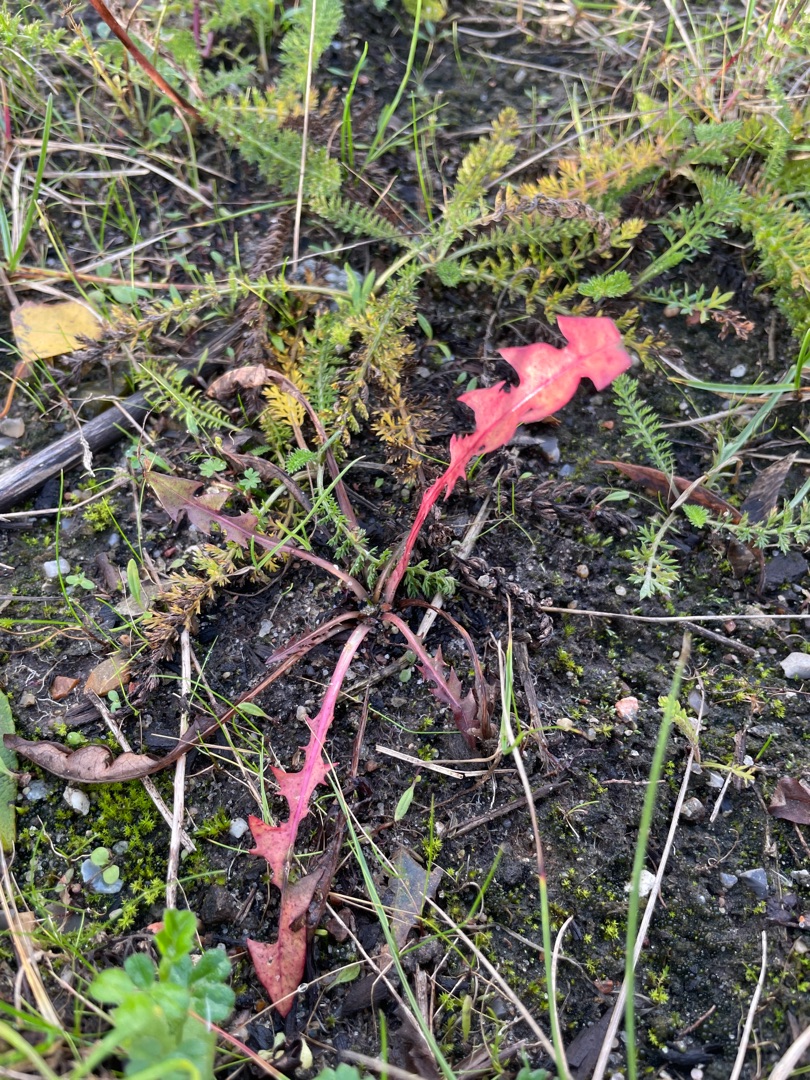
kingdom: Plantae
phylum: Tracheophyta
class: Magnoliopsida
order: Asterales
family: Asteraceae
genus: Taraxacum
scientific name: Taraxacum
